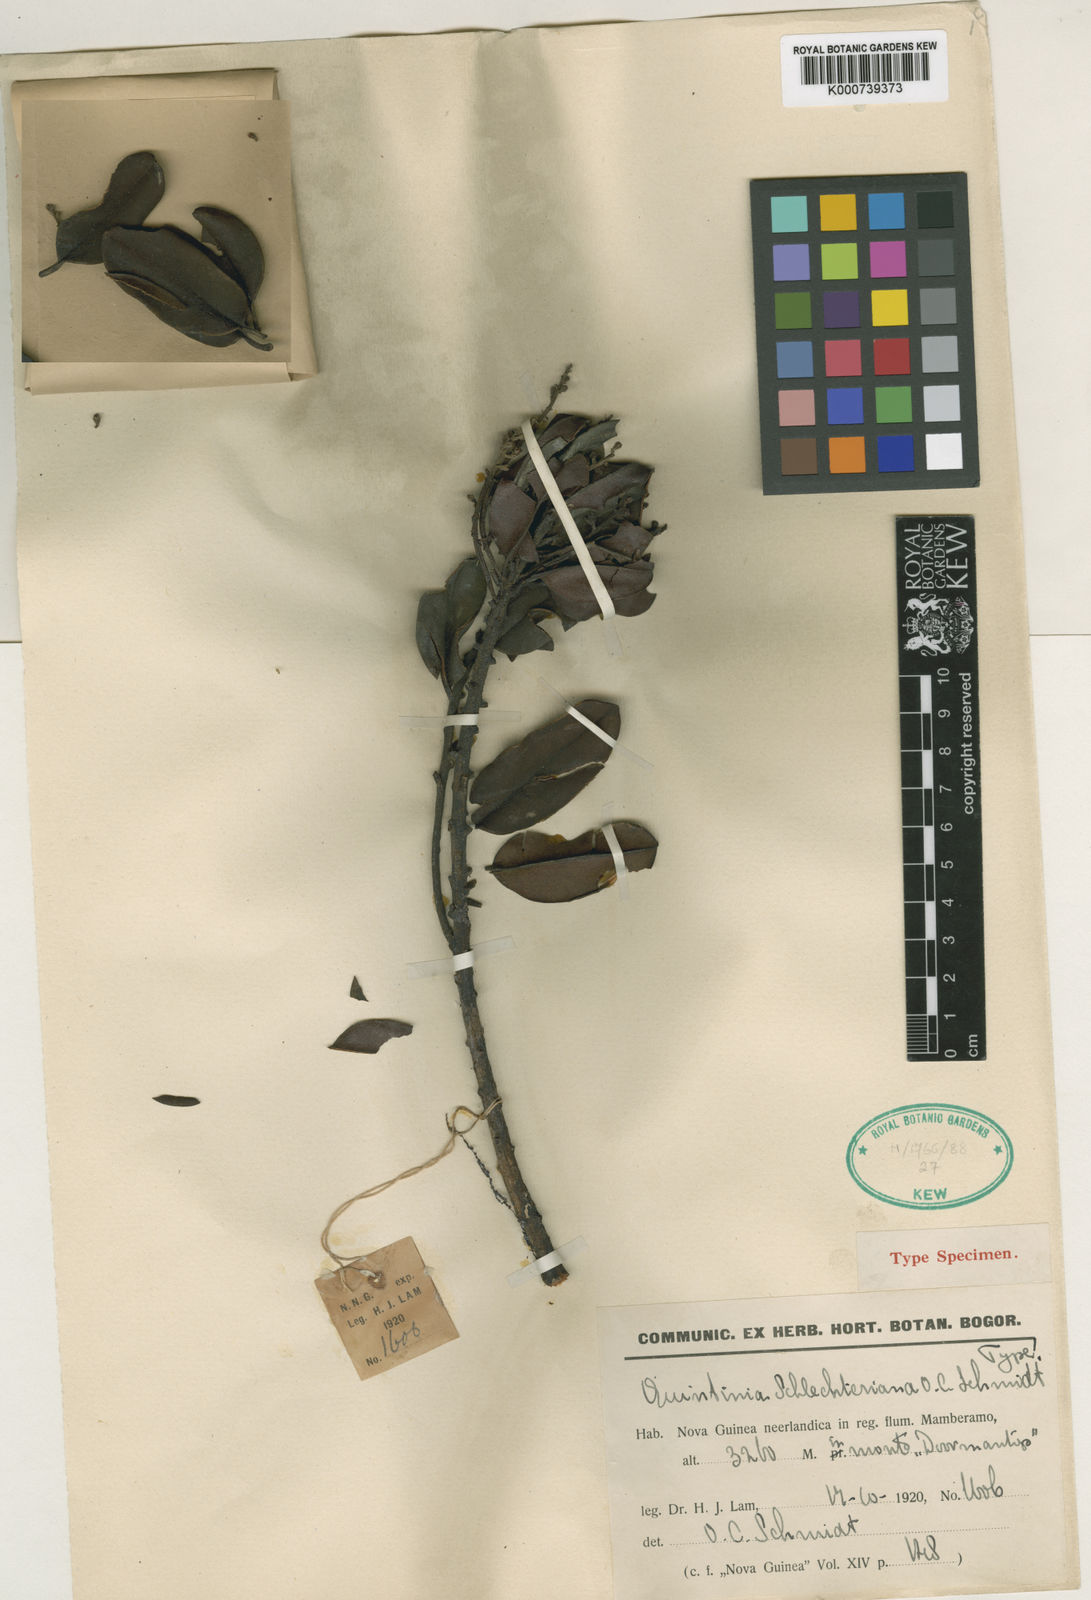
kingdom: Plantae
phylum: Tracheophyta
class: Magnoliopsida
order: Paracryphiales
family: Paracryphiaceae
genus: Quintinia
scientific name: Quintinia schlechteriana
